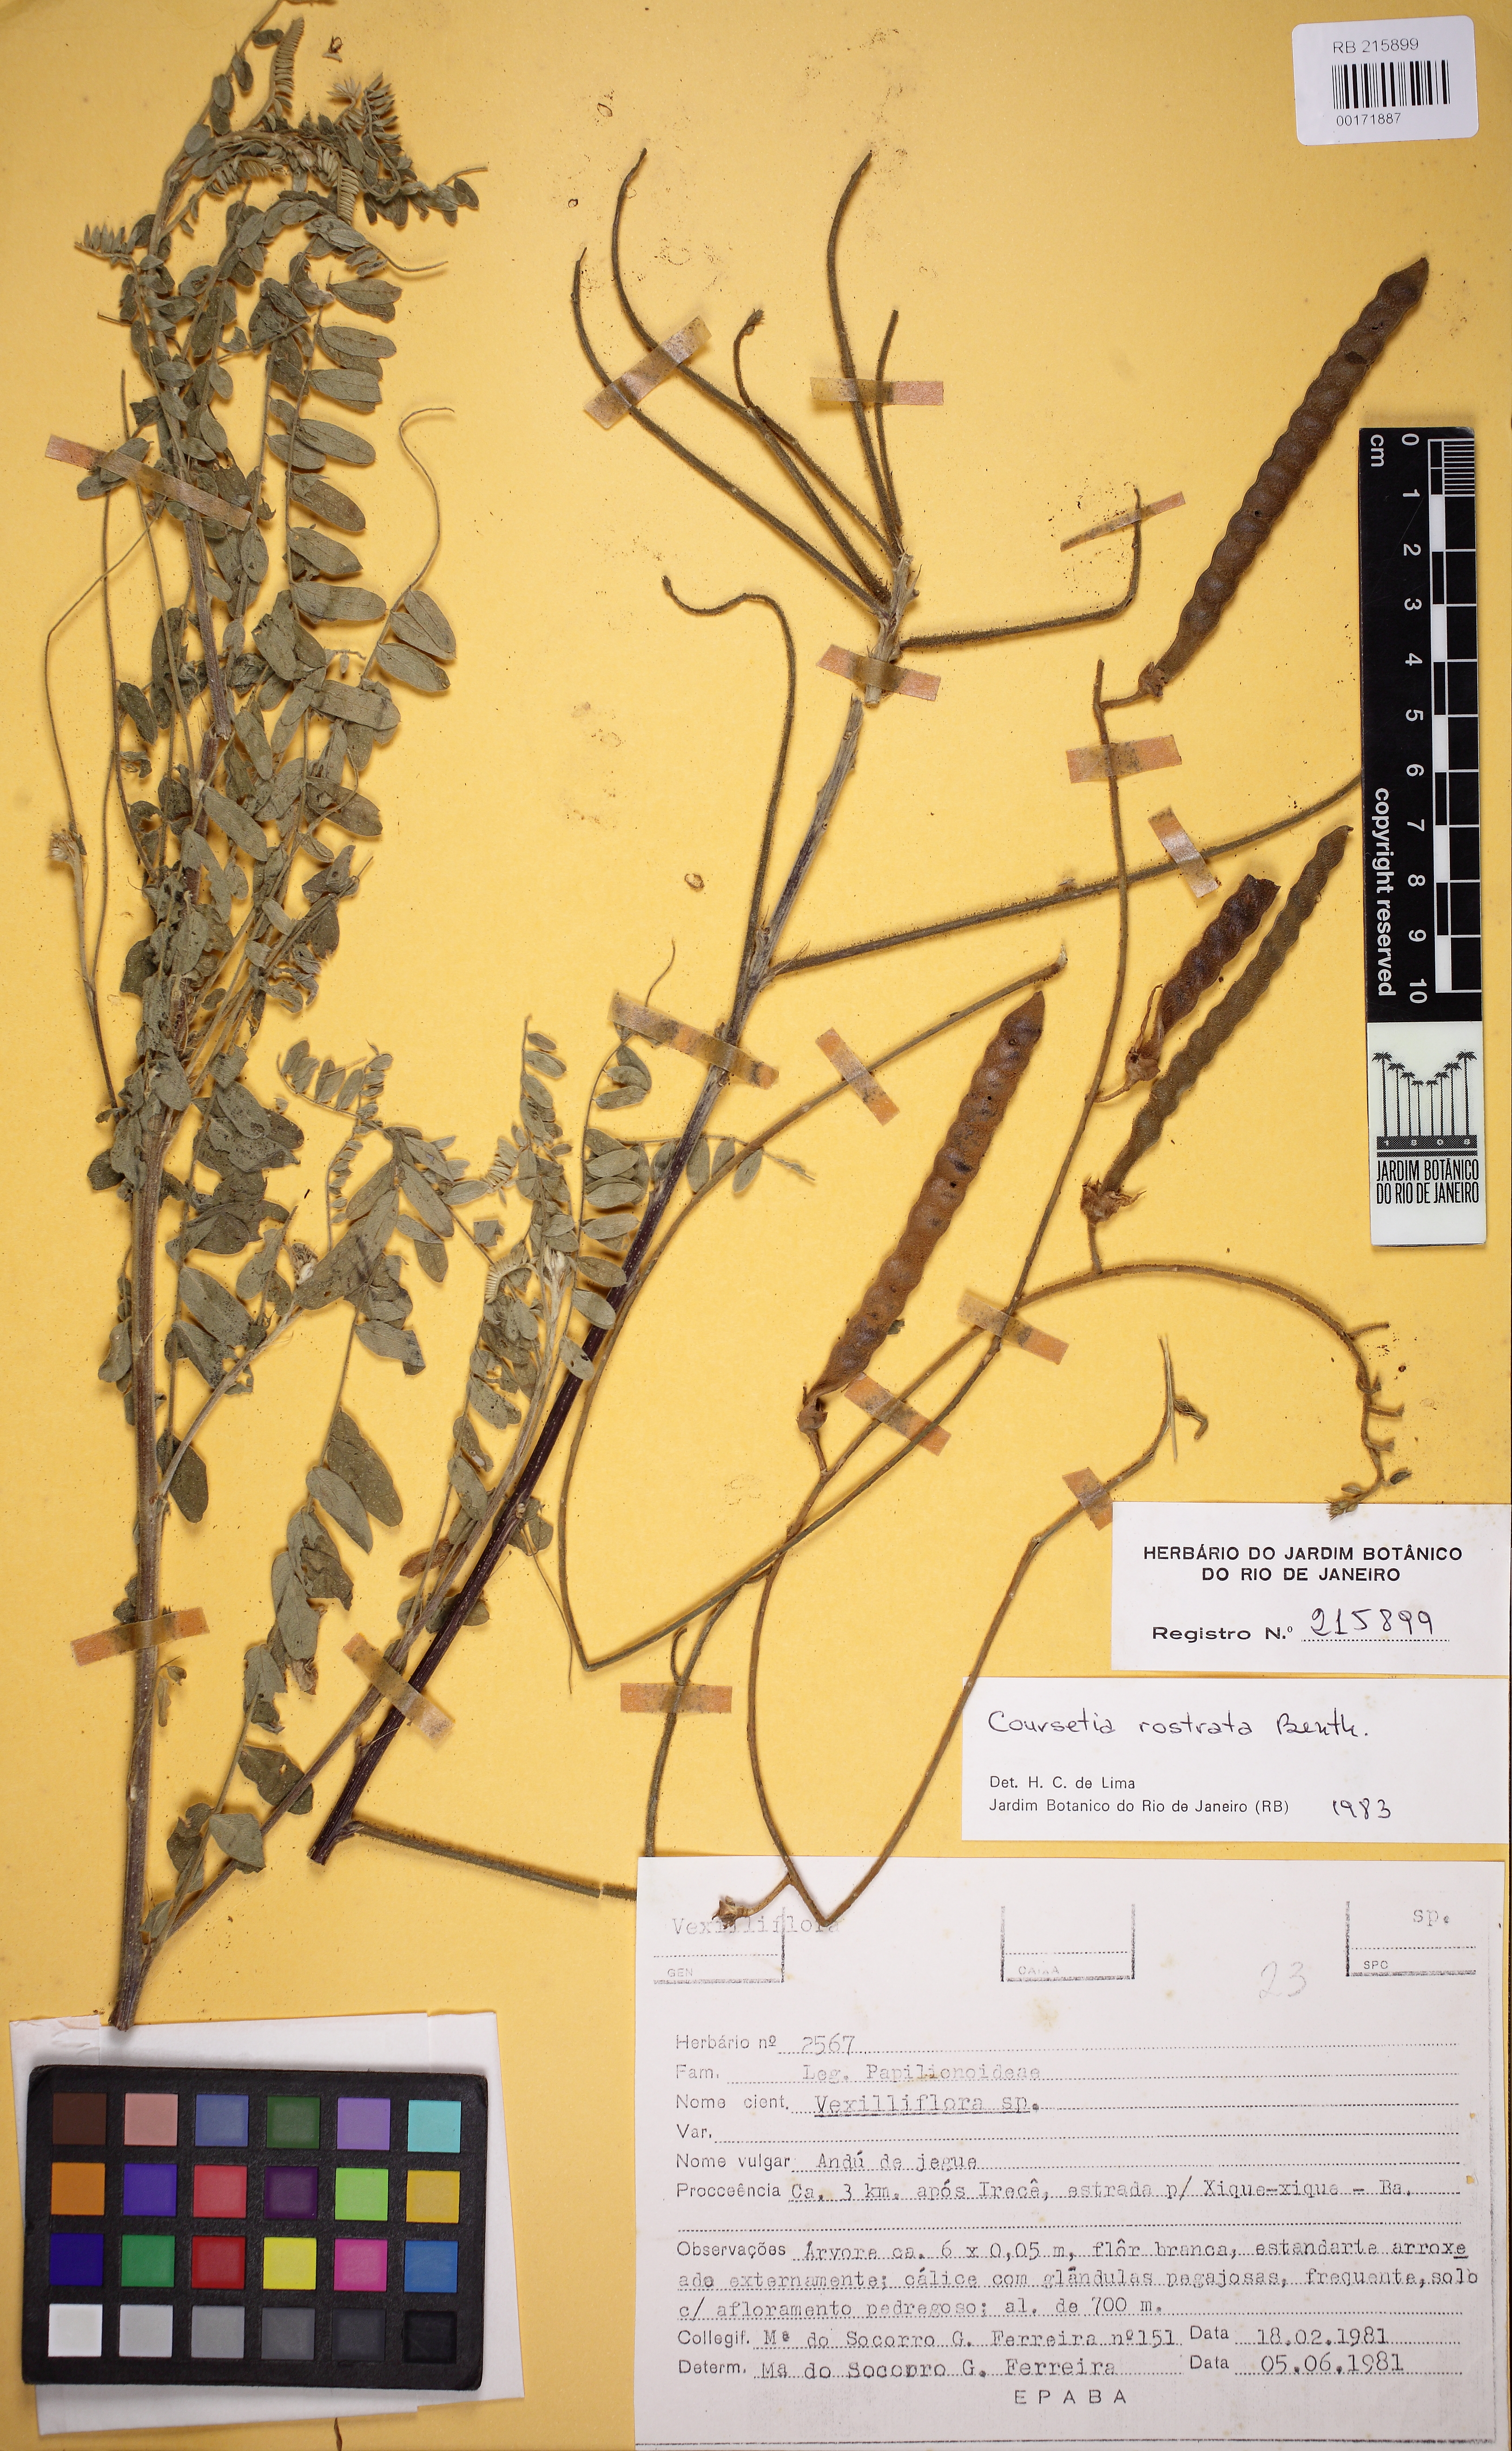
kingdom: Plantae
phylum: Tracheophyta
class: Magnoliopsida
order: Fabales
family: Fabaceae
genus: Coursetia
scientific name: Coursetia rostrata
